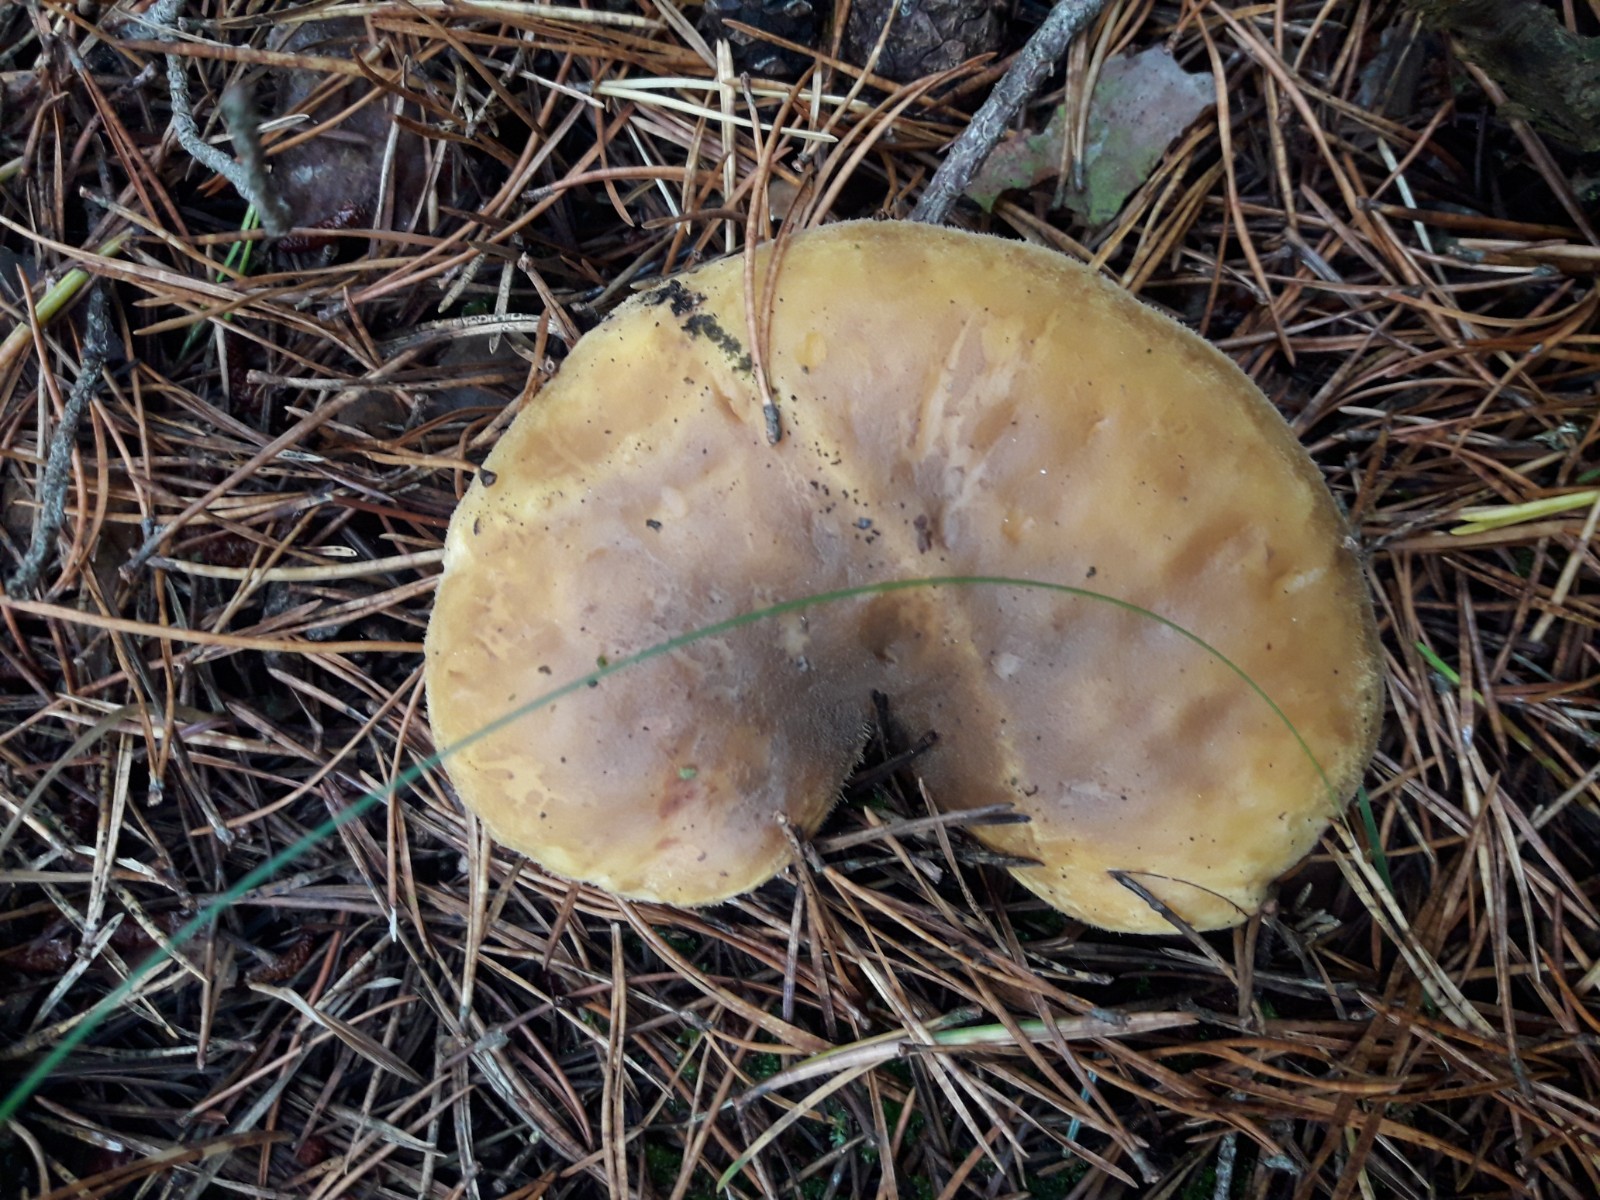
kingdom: Fungi
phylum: Basidiomycota
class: Agaricomycetes
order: Boletales
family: Tapinellaceae
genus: Tapinella
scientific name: Tapinella atrotomentosa
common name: sortfiltet viftesvamp
